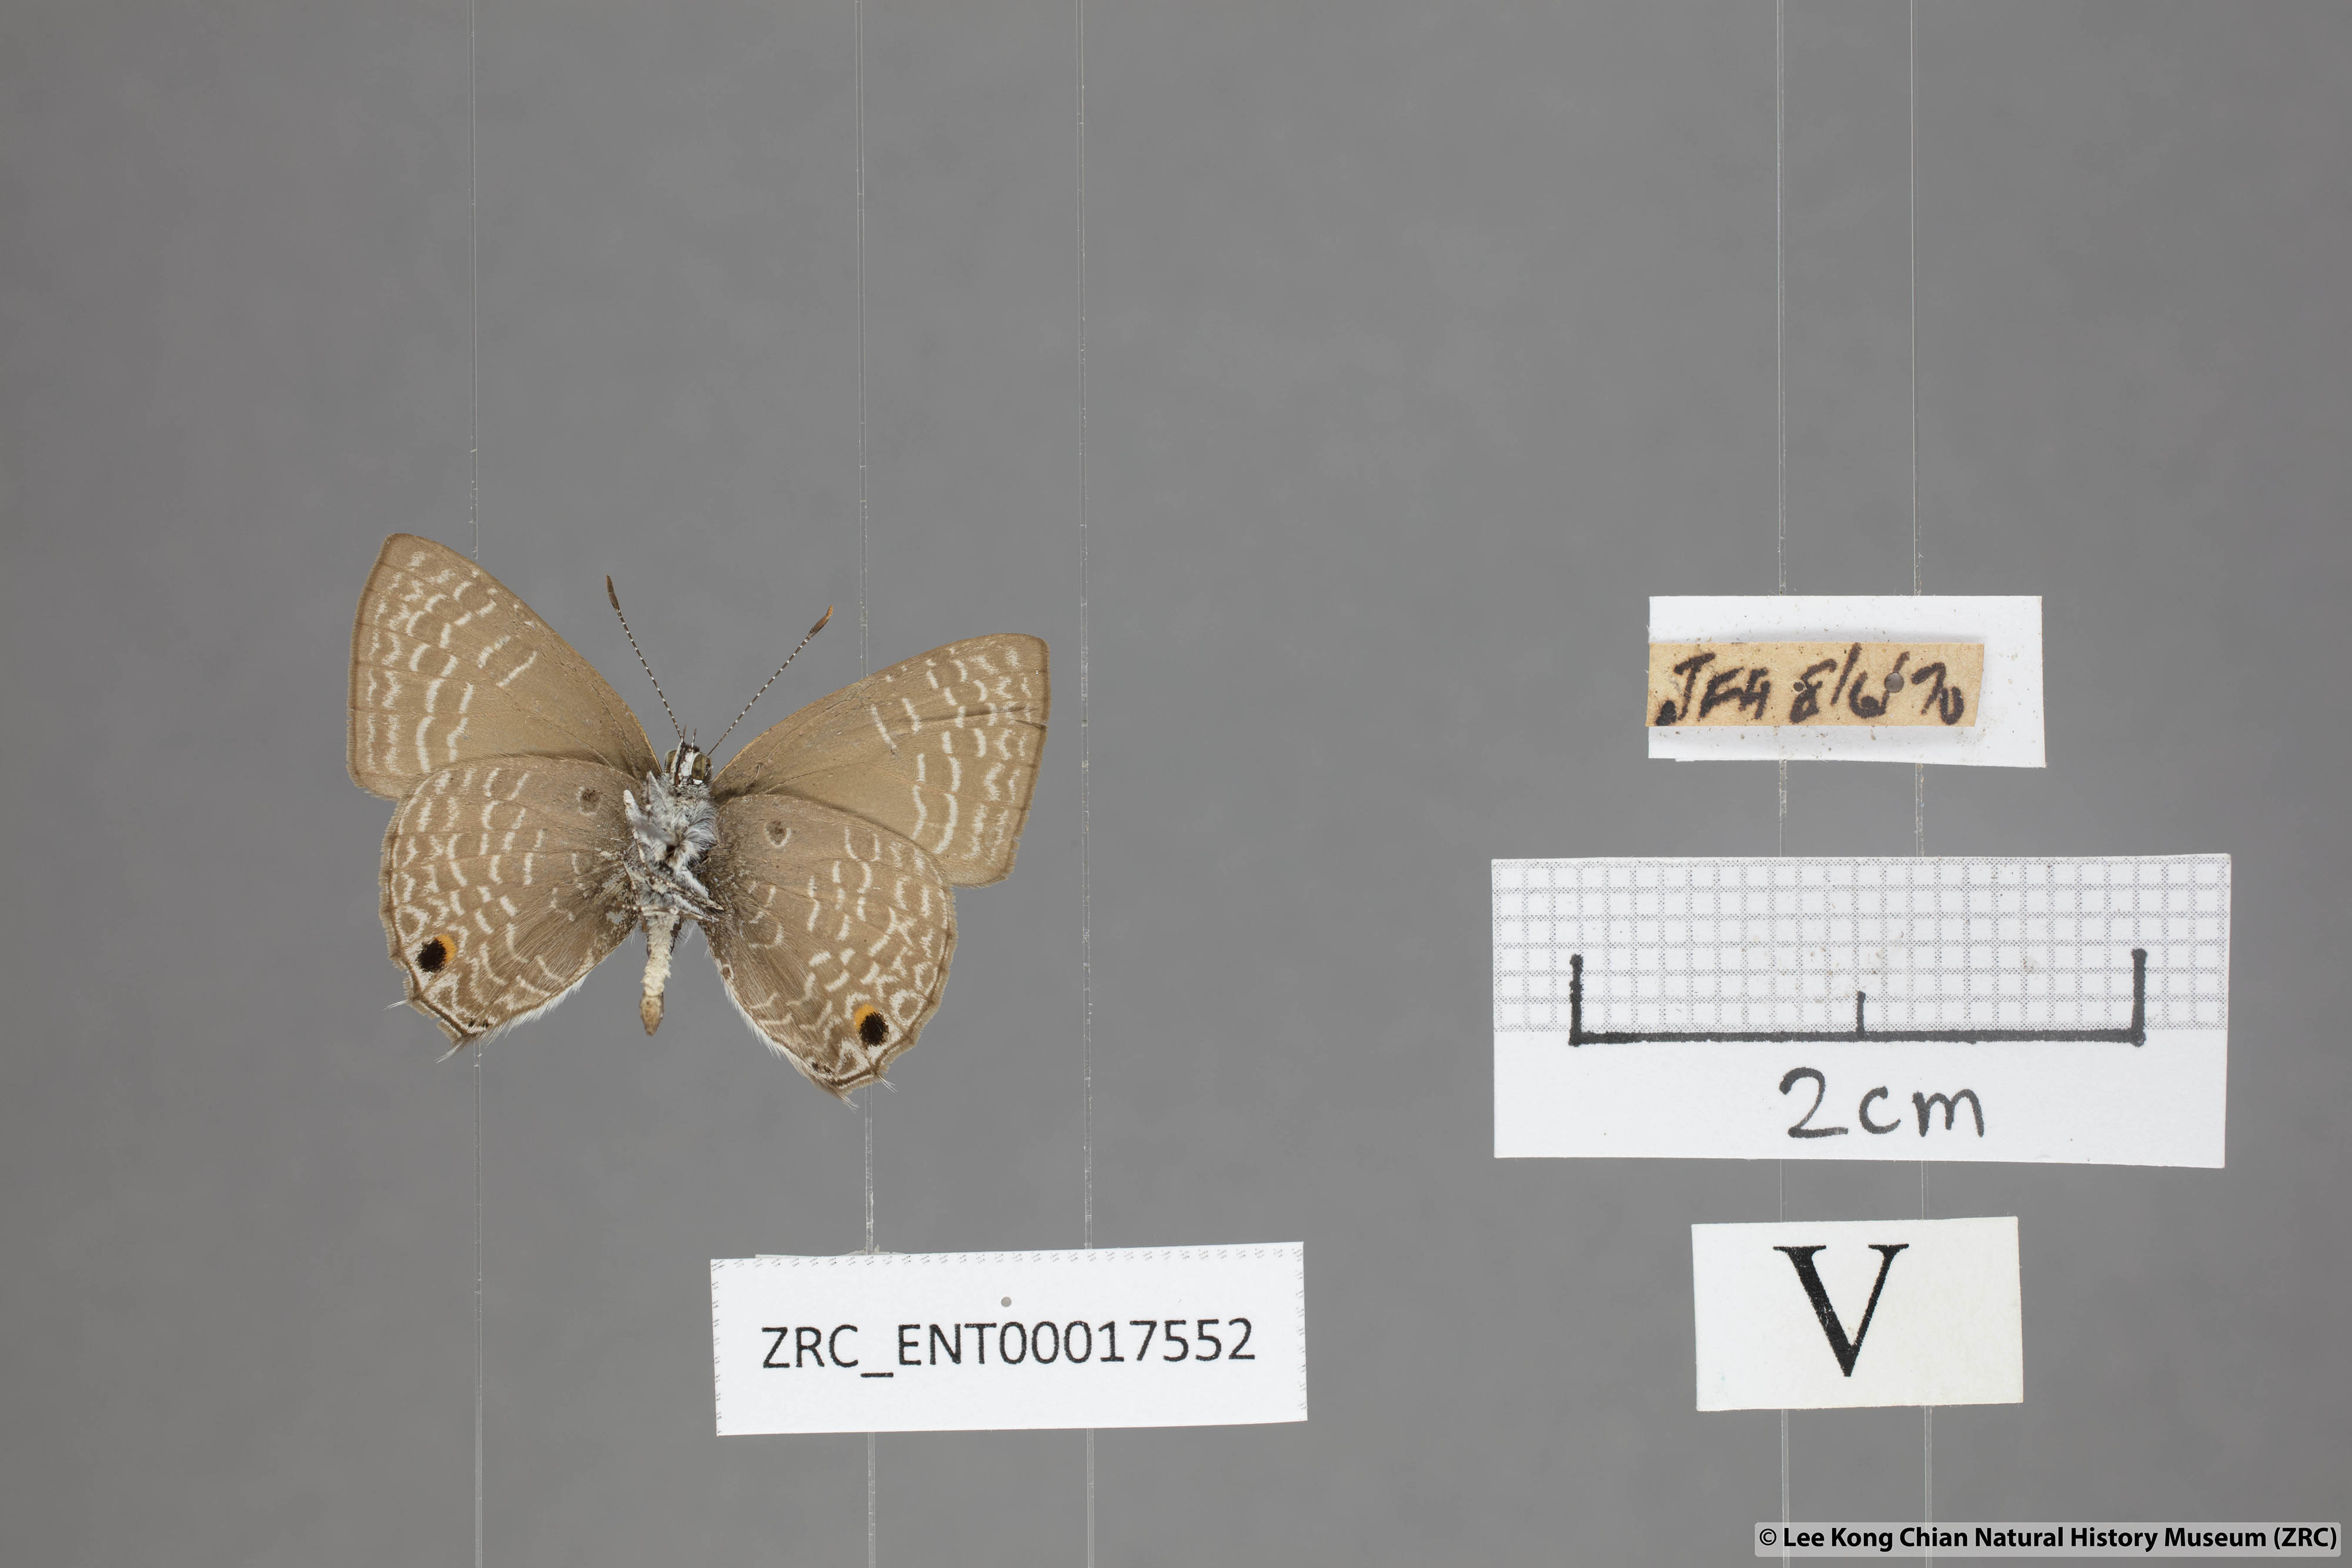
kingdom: Animalia
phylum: Arthropoda
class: Insecta
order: Lepidoptera
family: Lycaenidae
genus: Anthene
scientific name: Anthene lycaenoides
